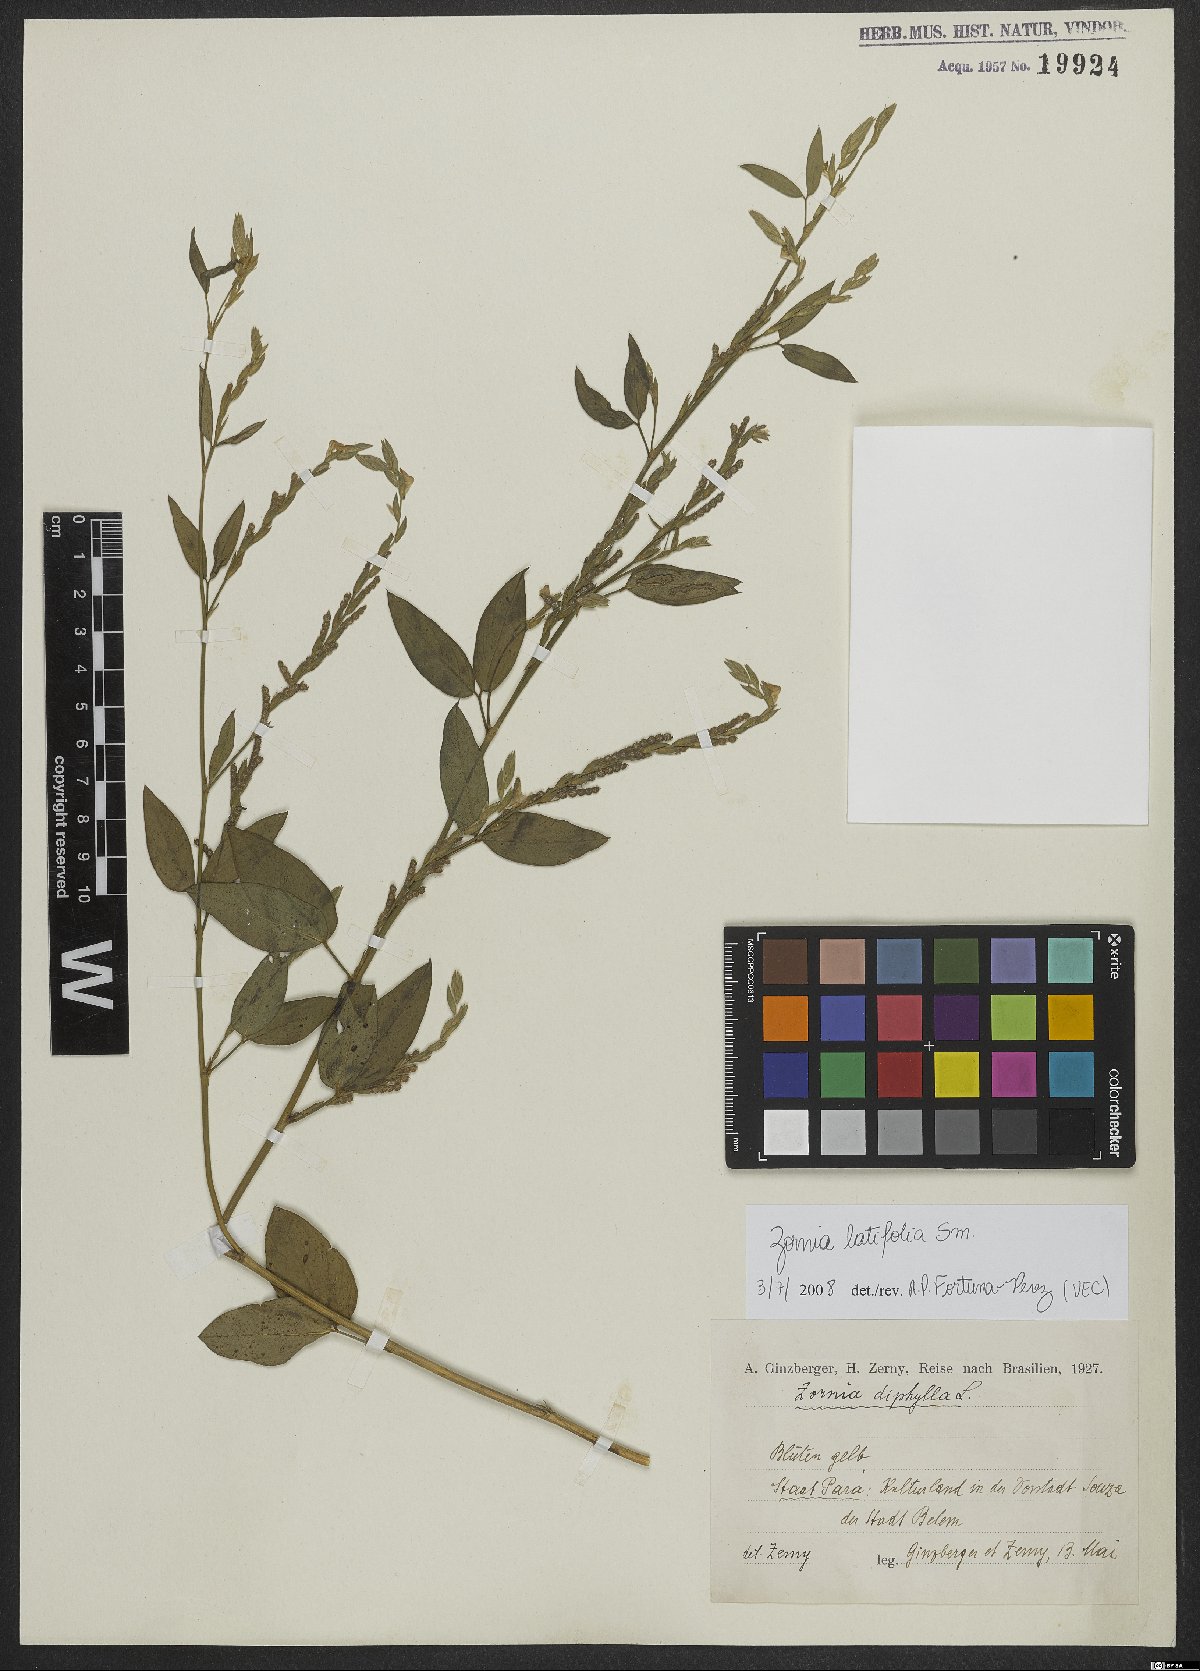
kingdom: Plantae
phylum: Tracheophyta
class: Magnoliopsida
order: Fabales
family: Fabaceae
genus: Zornia
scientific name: Zornia sericea
